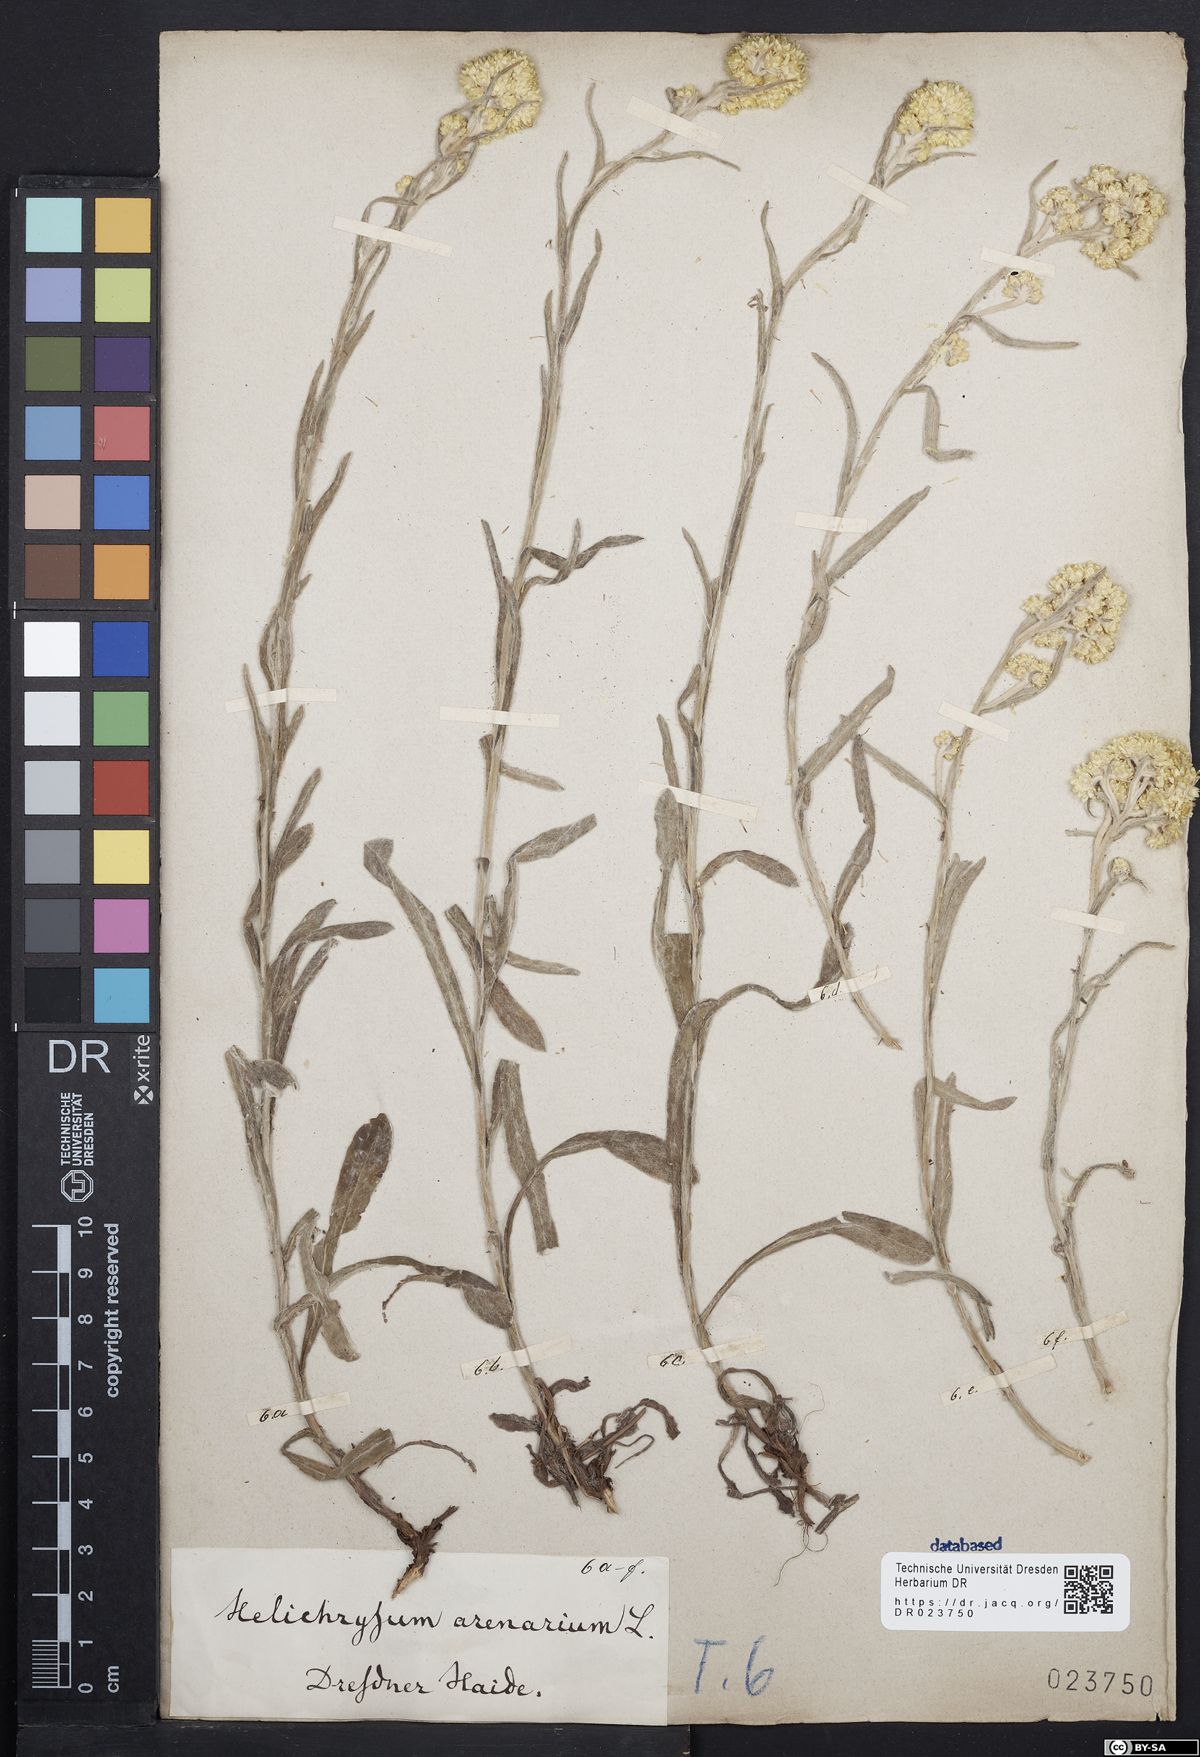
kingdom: Plantae
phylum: Tracheophyta
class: Magnoliopsida
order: Asterales
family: Asteraceae
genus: Helichrysum
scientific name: Helichrysum arenarium
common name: Strawflower
